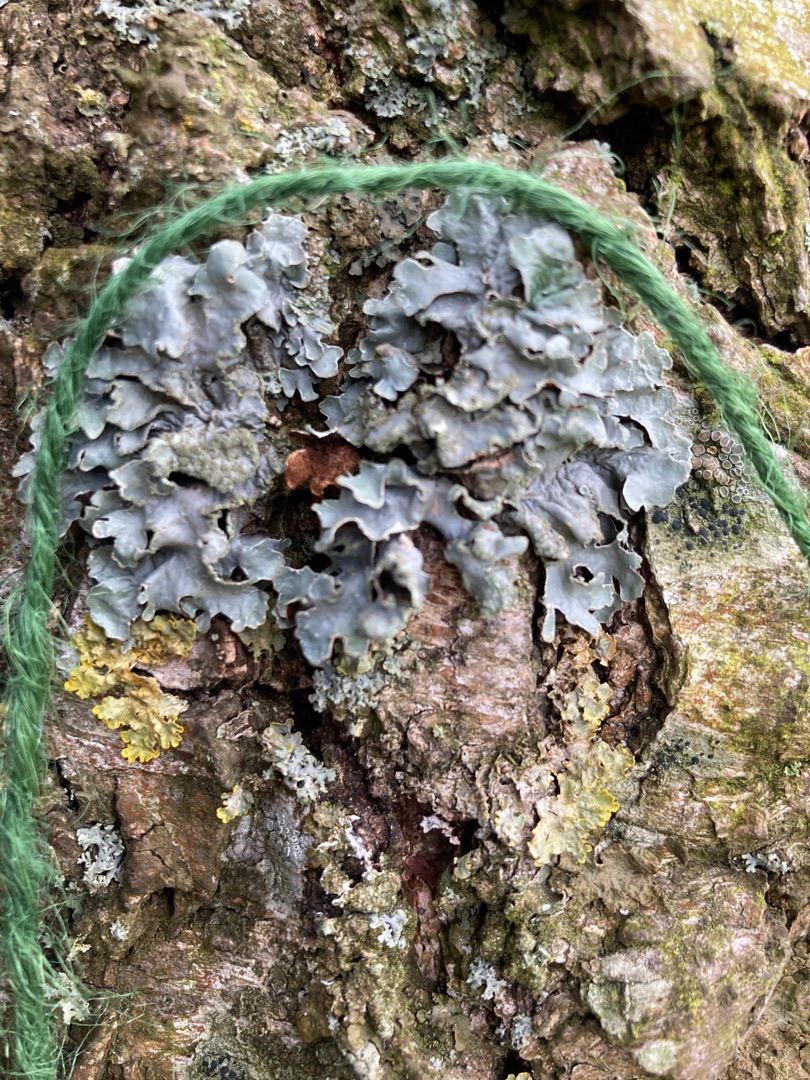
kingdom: Fungi
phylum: Ascomycota
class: Lecanoromycetes
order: Lecanorales
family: Parmeliaceae
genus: Parmelia
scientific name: Parmelia sulcata
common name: Rynket skållav
